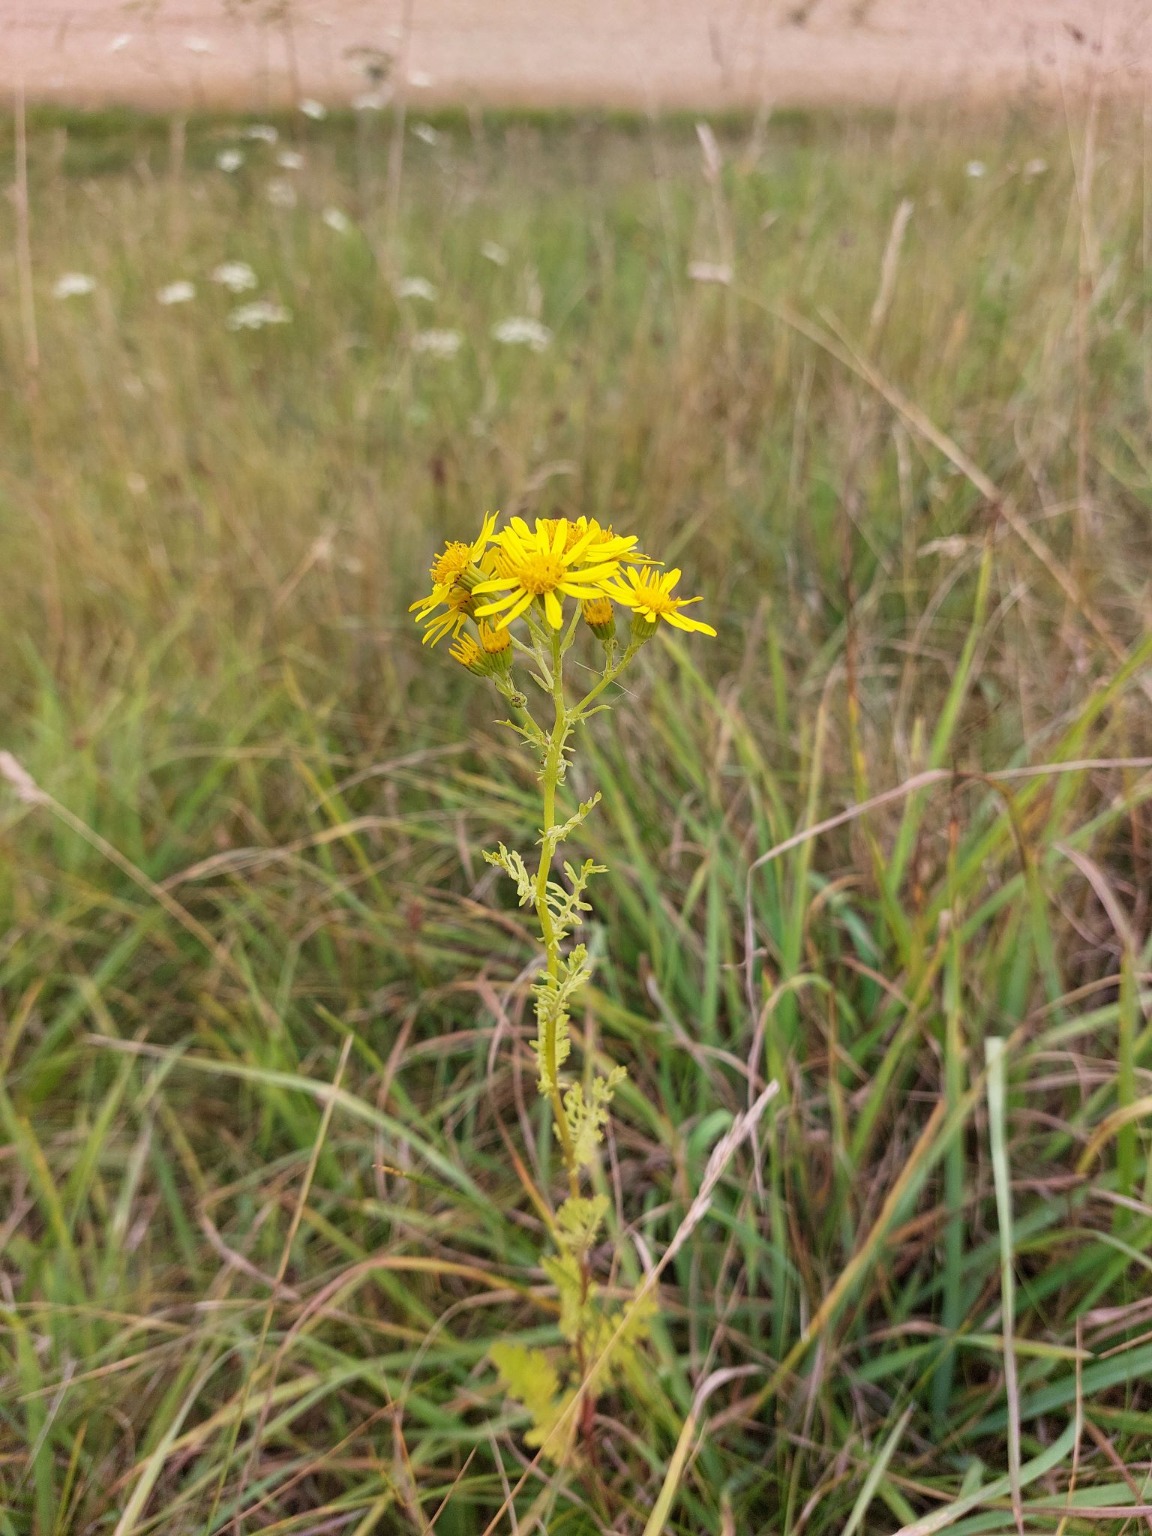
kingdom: Plantae
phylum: Tracheophyta
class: Magnoliopsida
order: Asterales
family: Asteraceae
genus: Jacobaea
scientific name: Jacobaea vulgaris
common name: Eng-brandbæger
